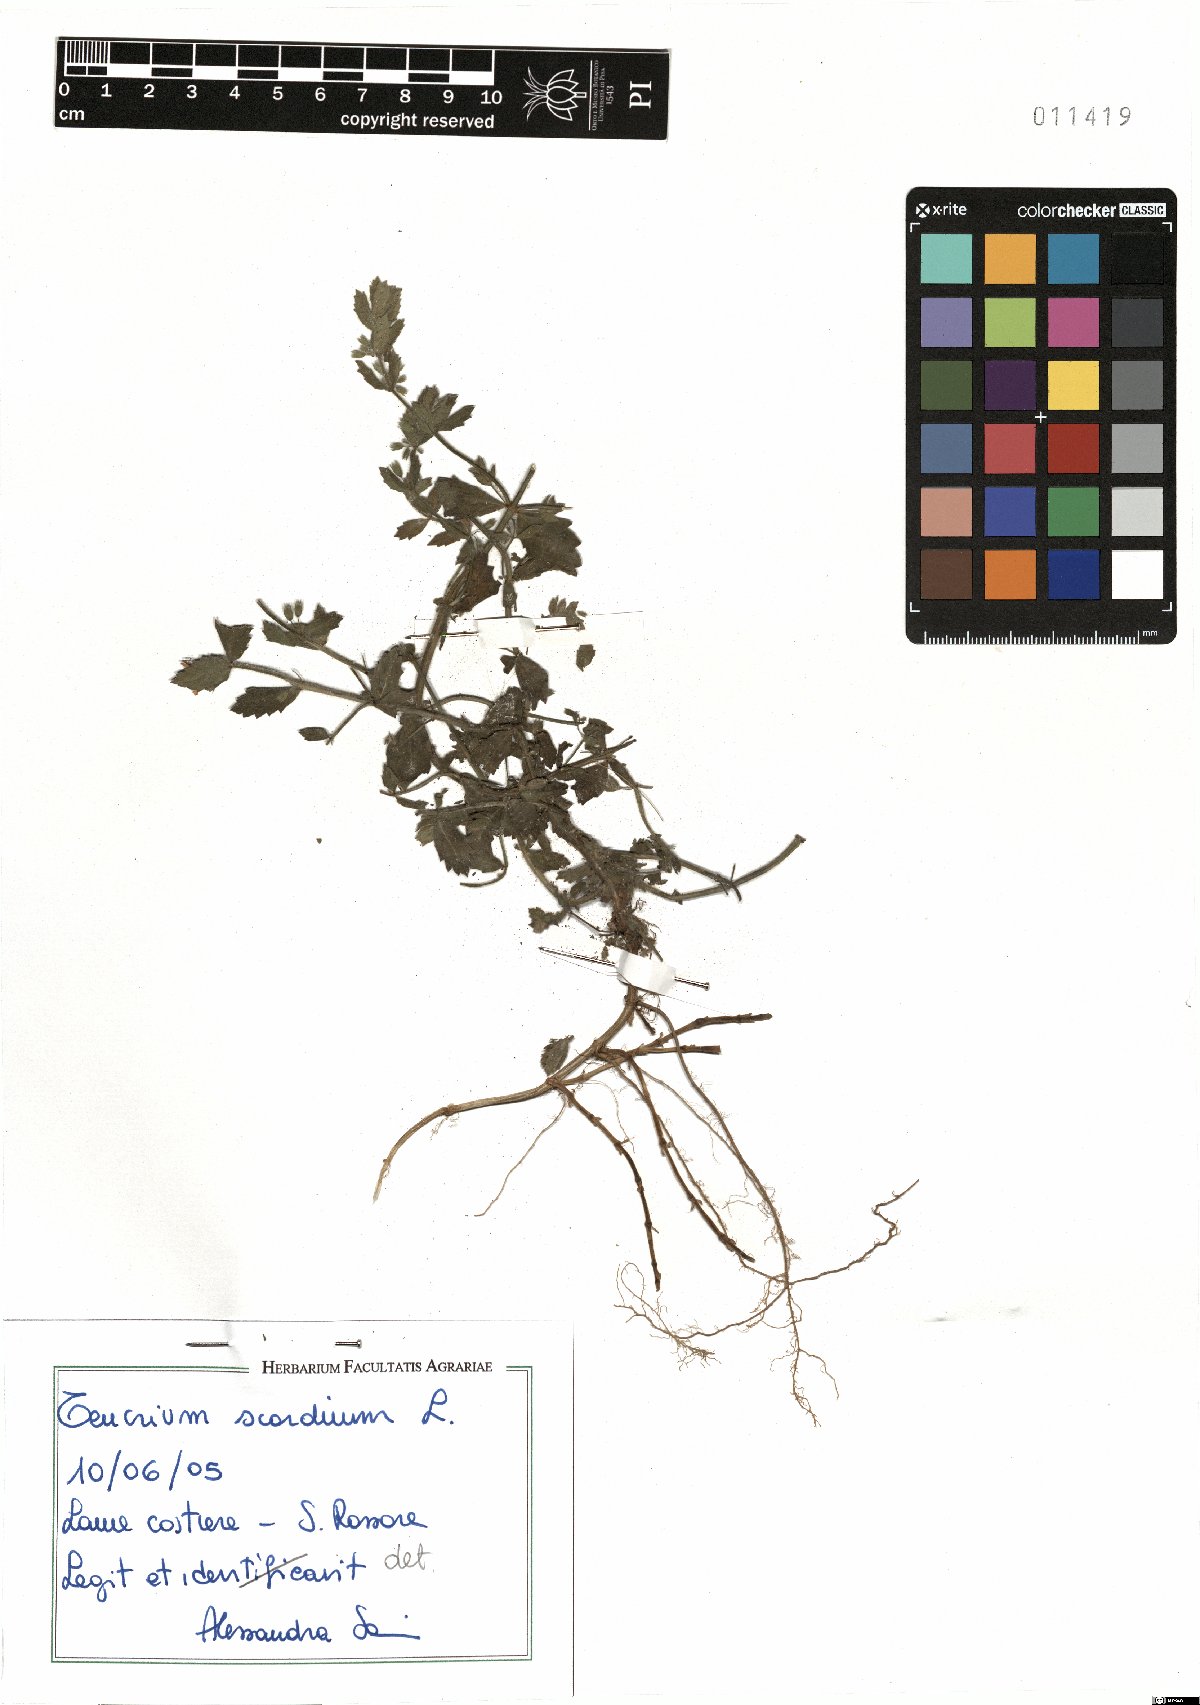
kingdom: Plantae
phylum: Tracheophyta
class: Magnoliopsida
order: Lamiales
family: Lamiaceae
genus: Teucrium
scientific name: Teucrium scordium
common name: Water germander
